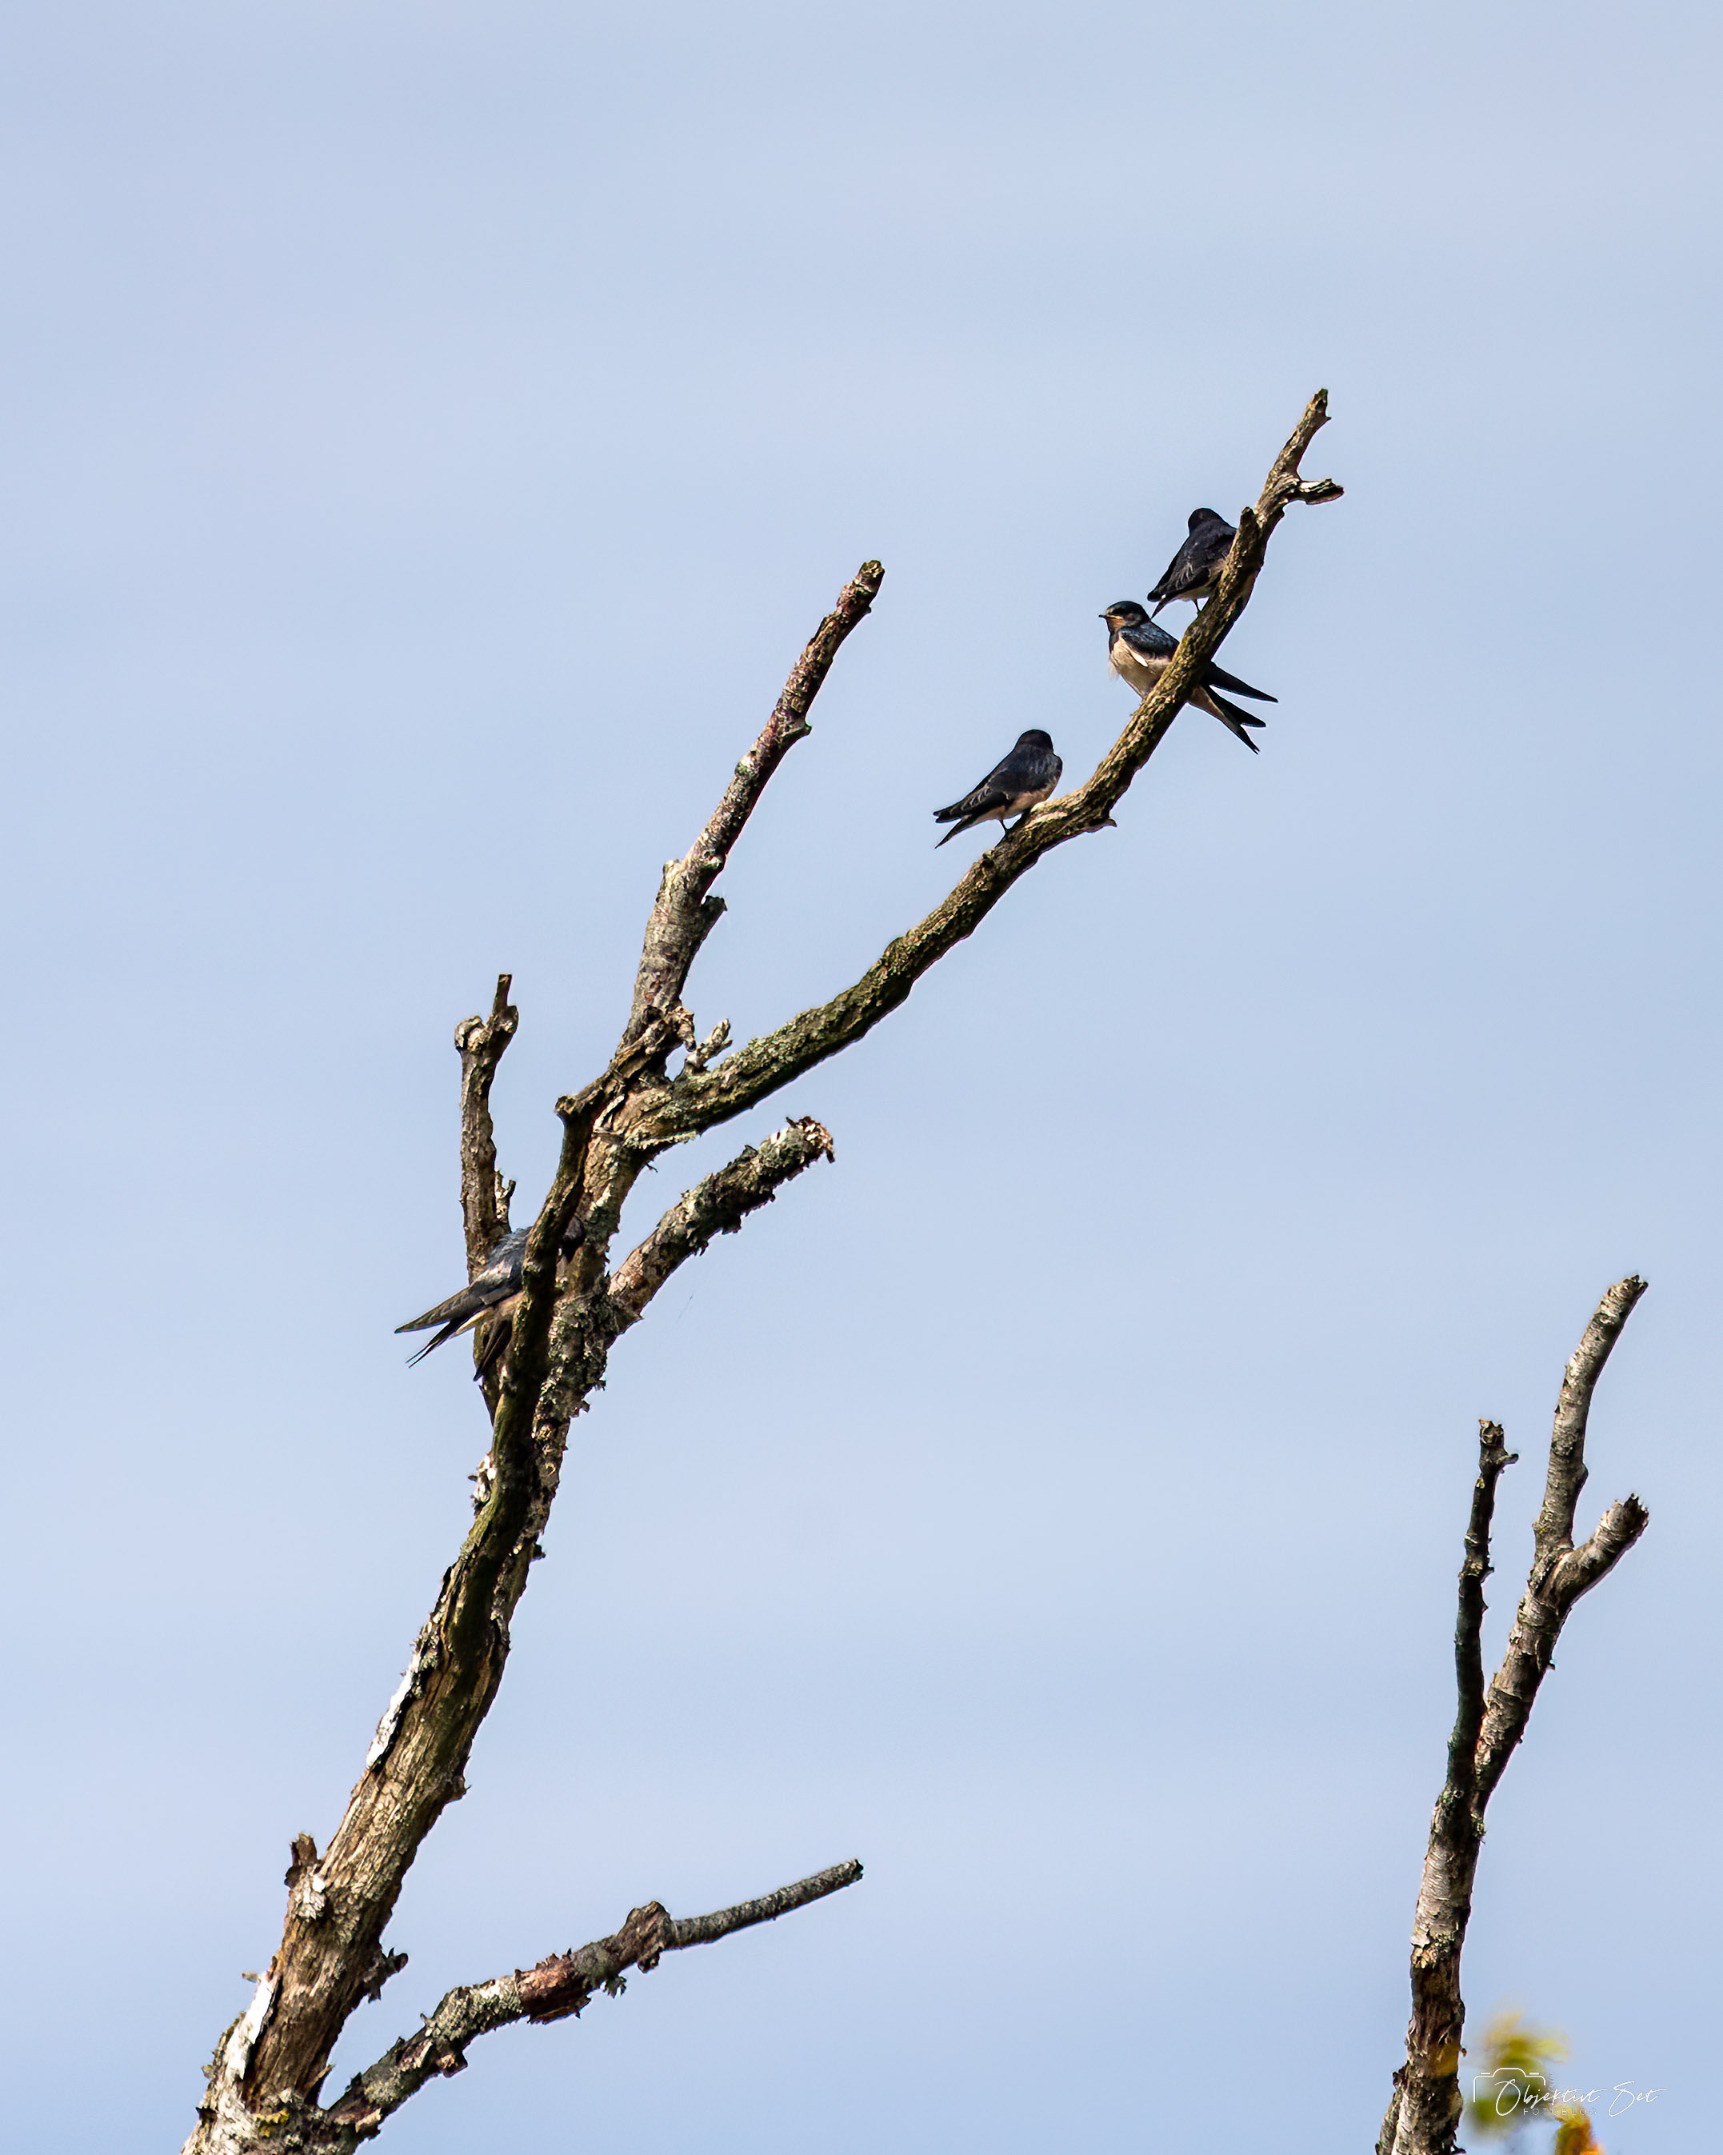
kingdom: Animalia
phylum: Chordata
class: Aves
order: Passeriformes
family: Hirundinidae
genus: Hirundo
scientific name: Hirundo rustica
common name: Landsvale
